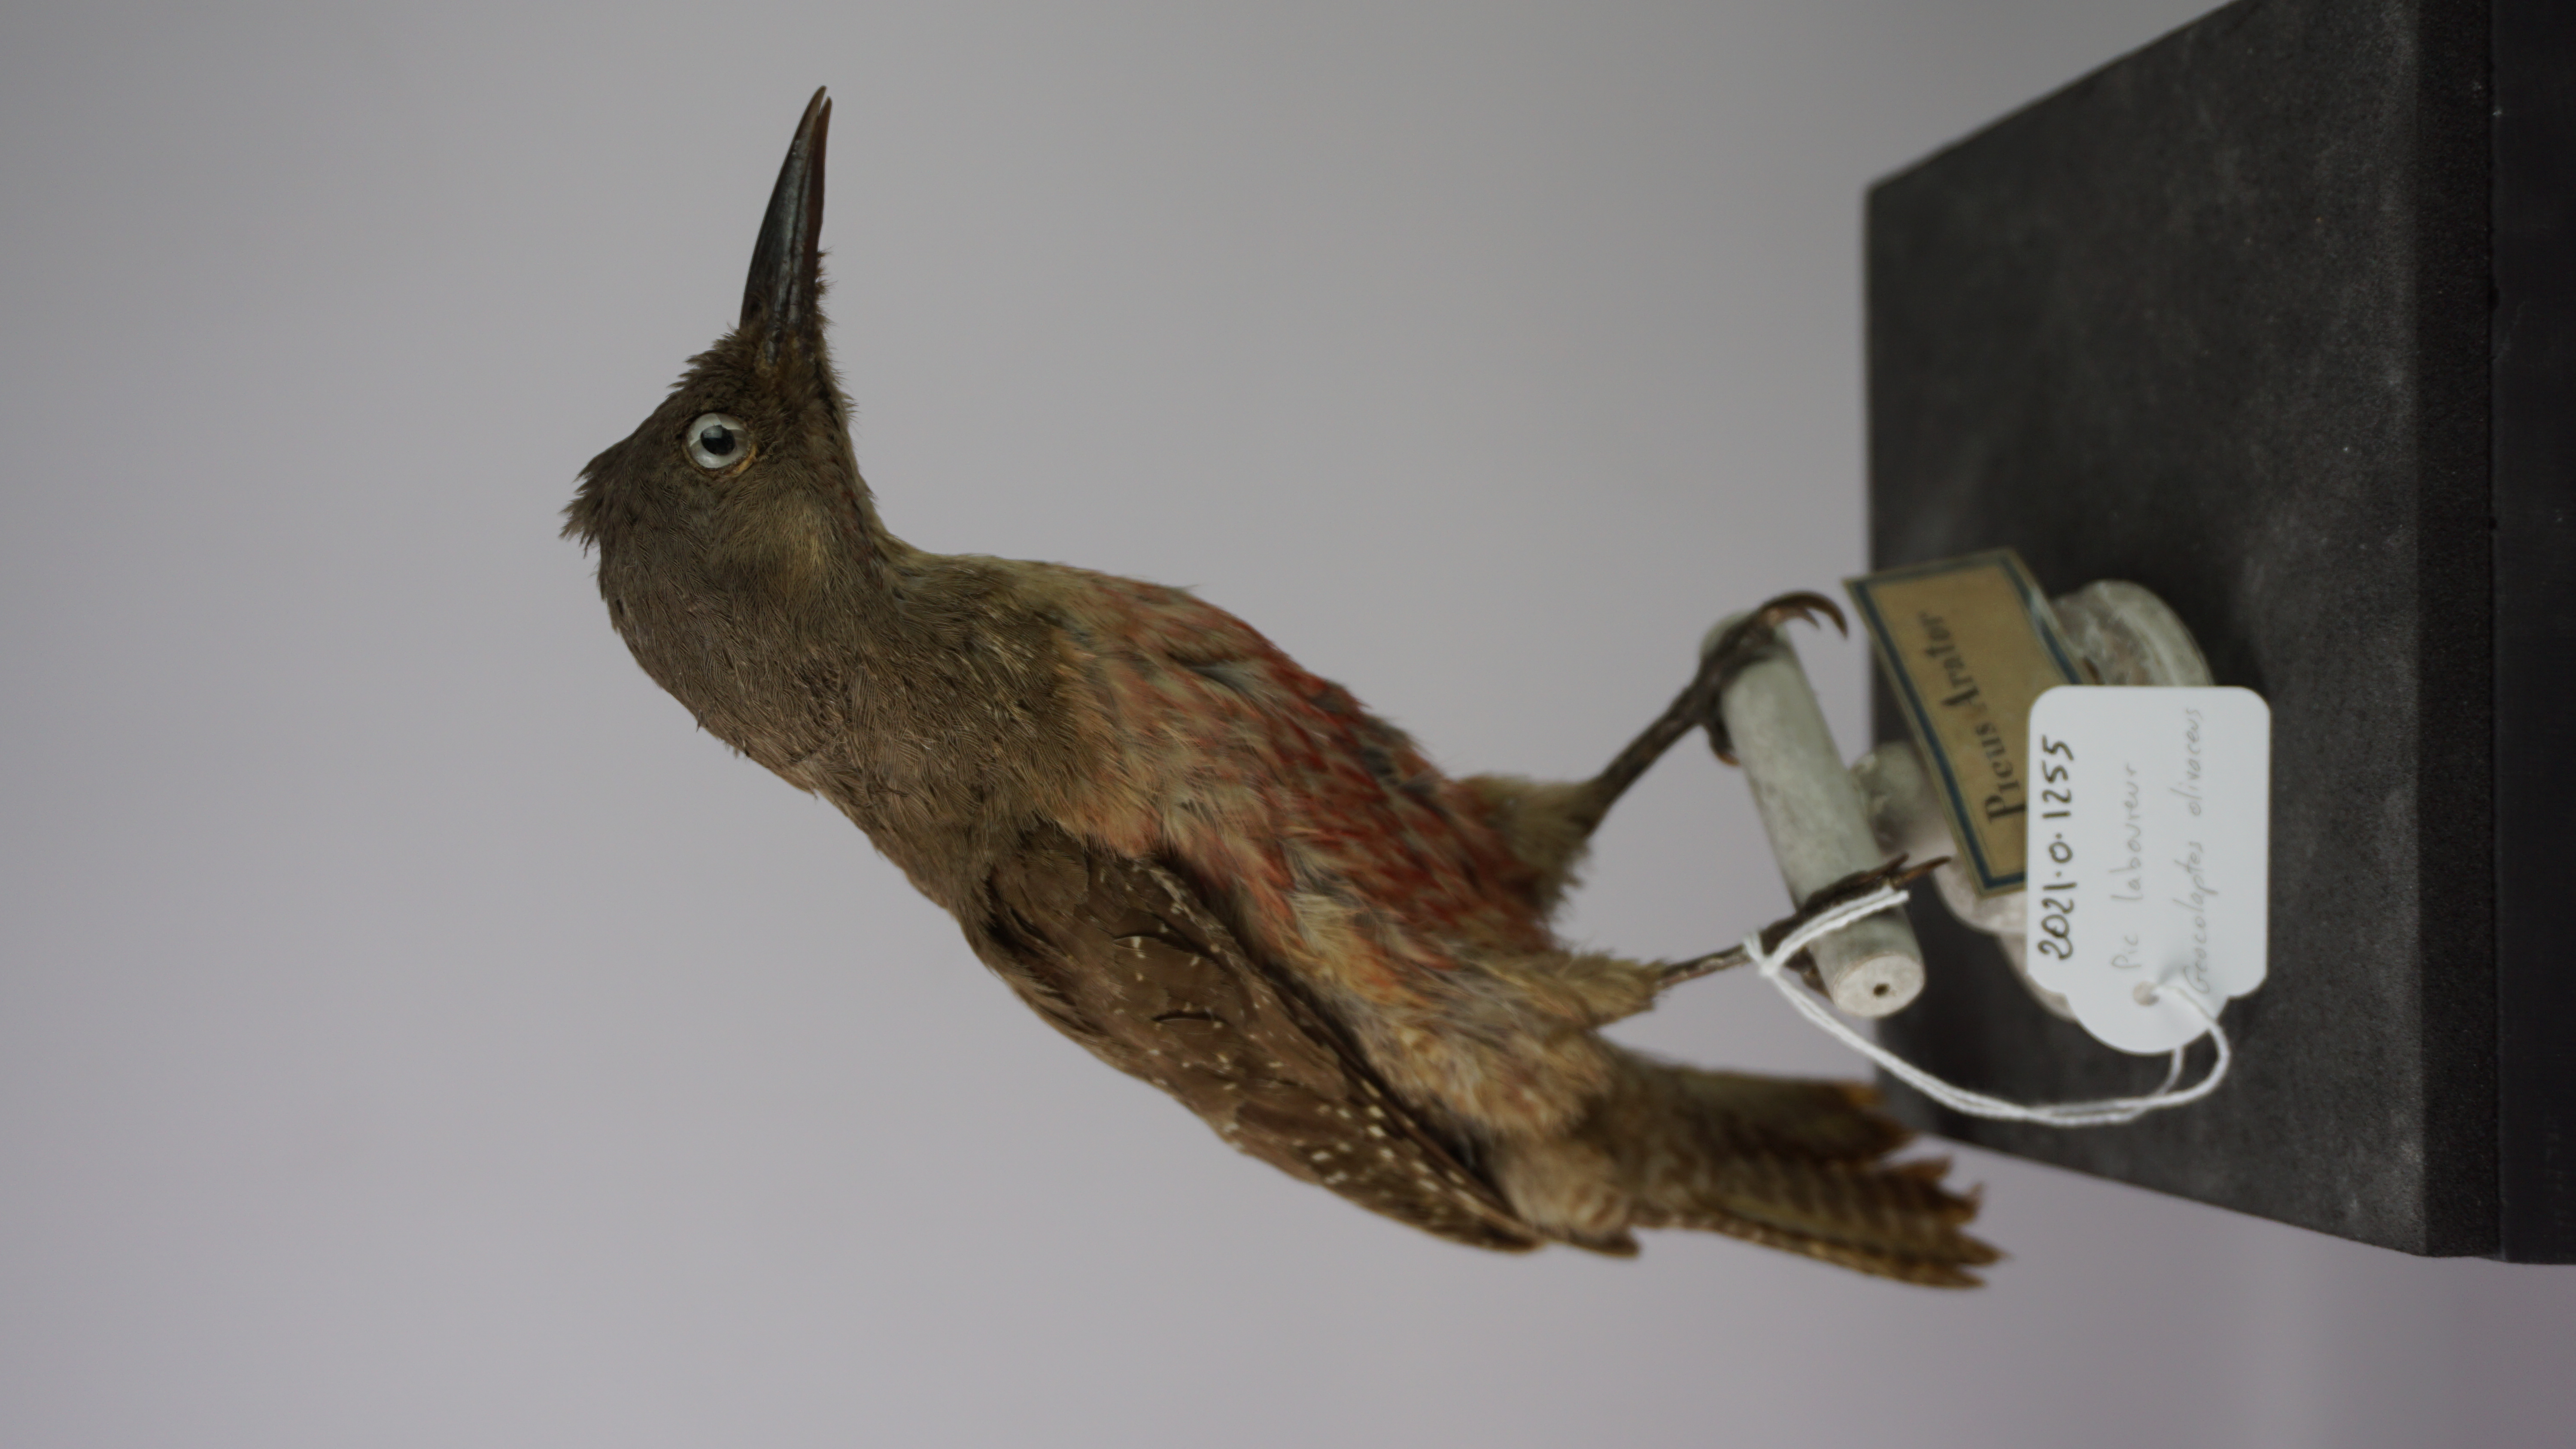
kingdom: Animalia
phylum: Chordata
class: Aves
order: Piciformes
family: Picidae
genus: Geocolaptes
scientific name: Geocolaptes olivaceus
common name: Ground woodpecker
